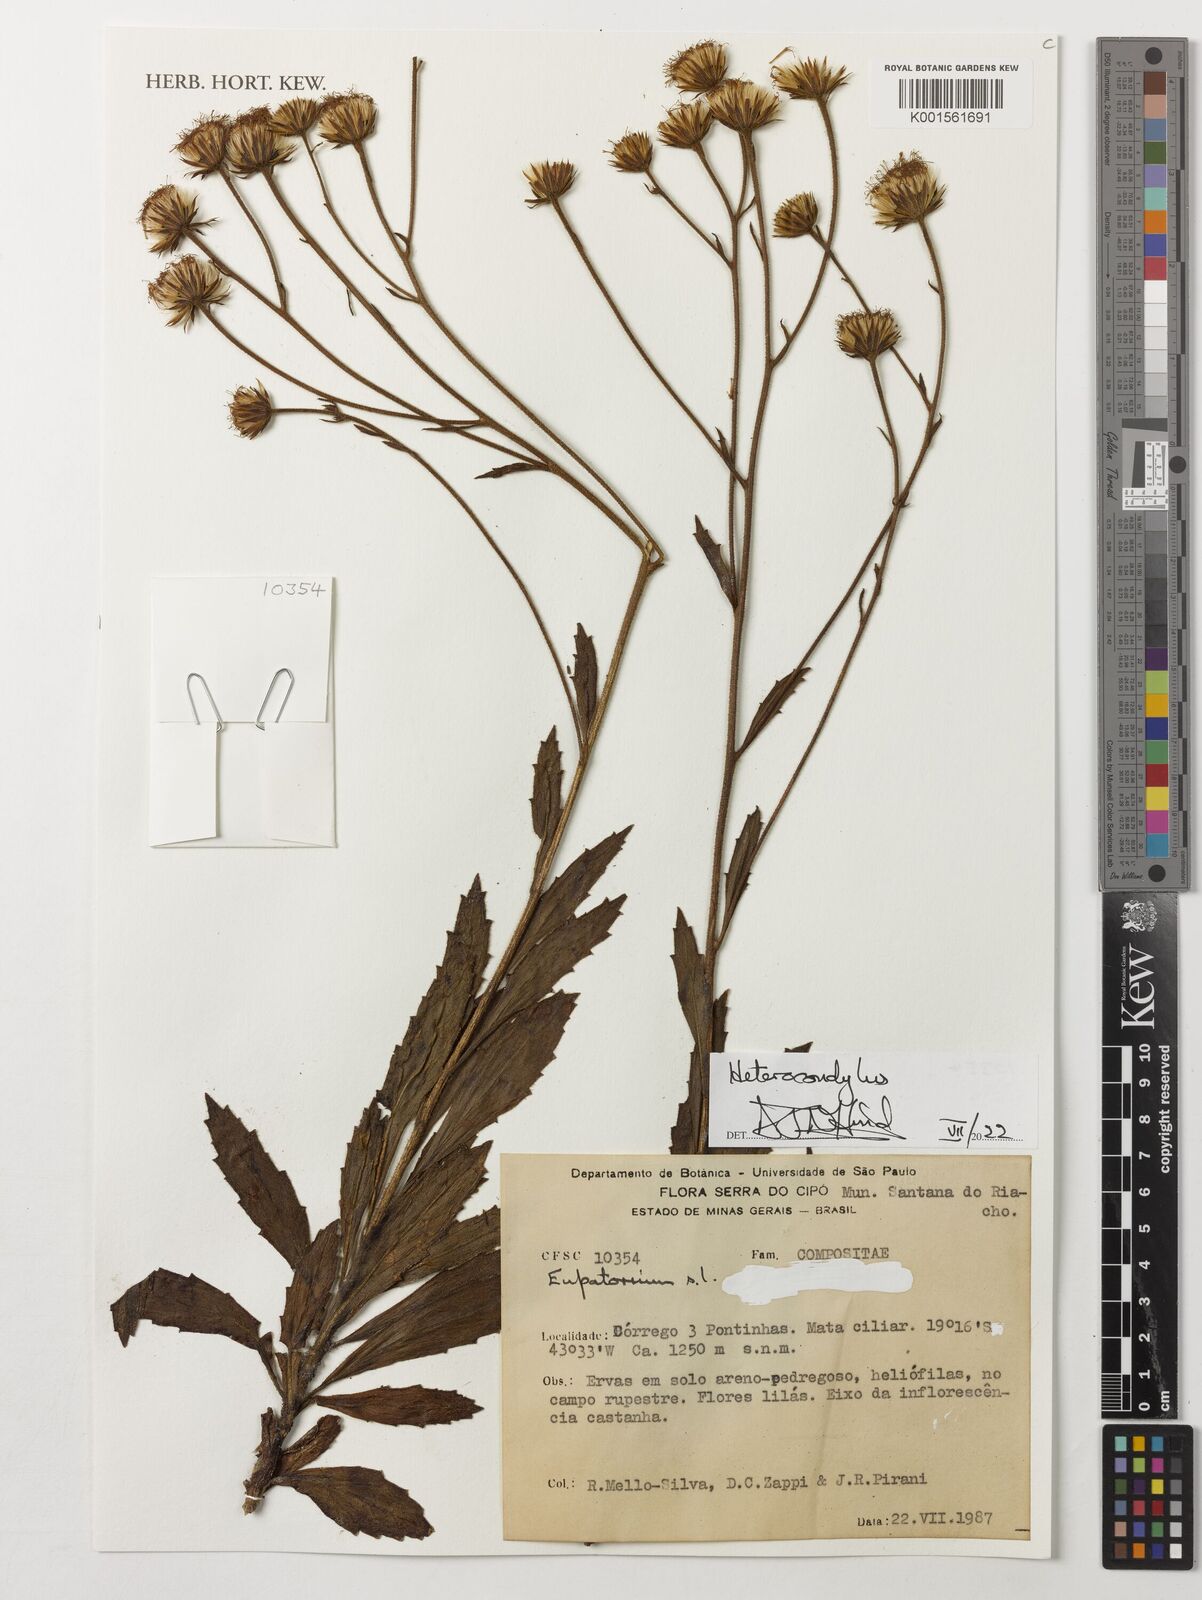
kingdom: Plantae
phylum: Tracheophyta
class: Magnoliopsida
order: Asterales
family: Asteraceae
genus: Heterocondylus
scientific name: Heterocondylus
